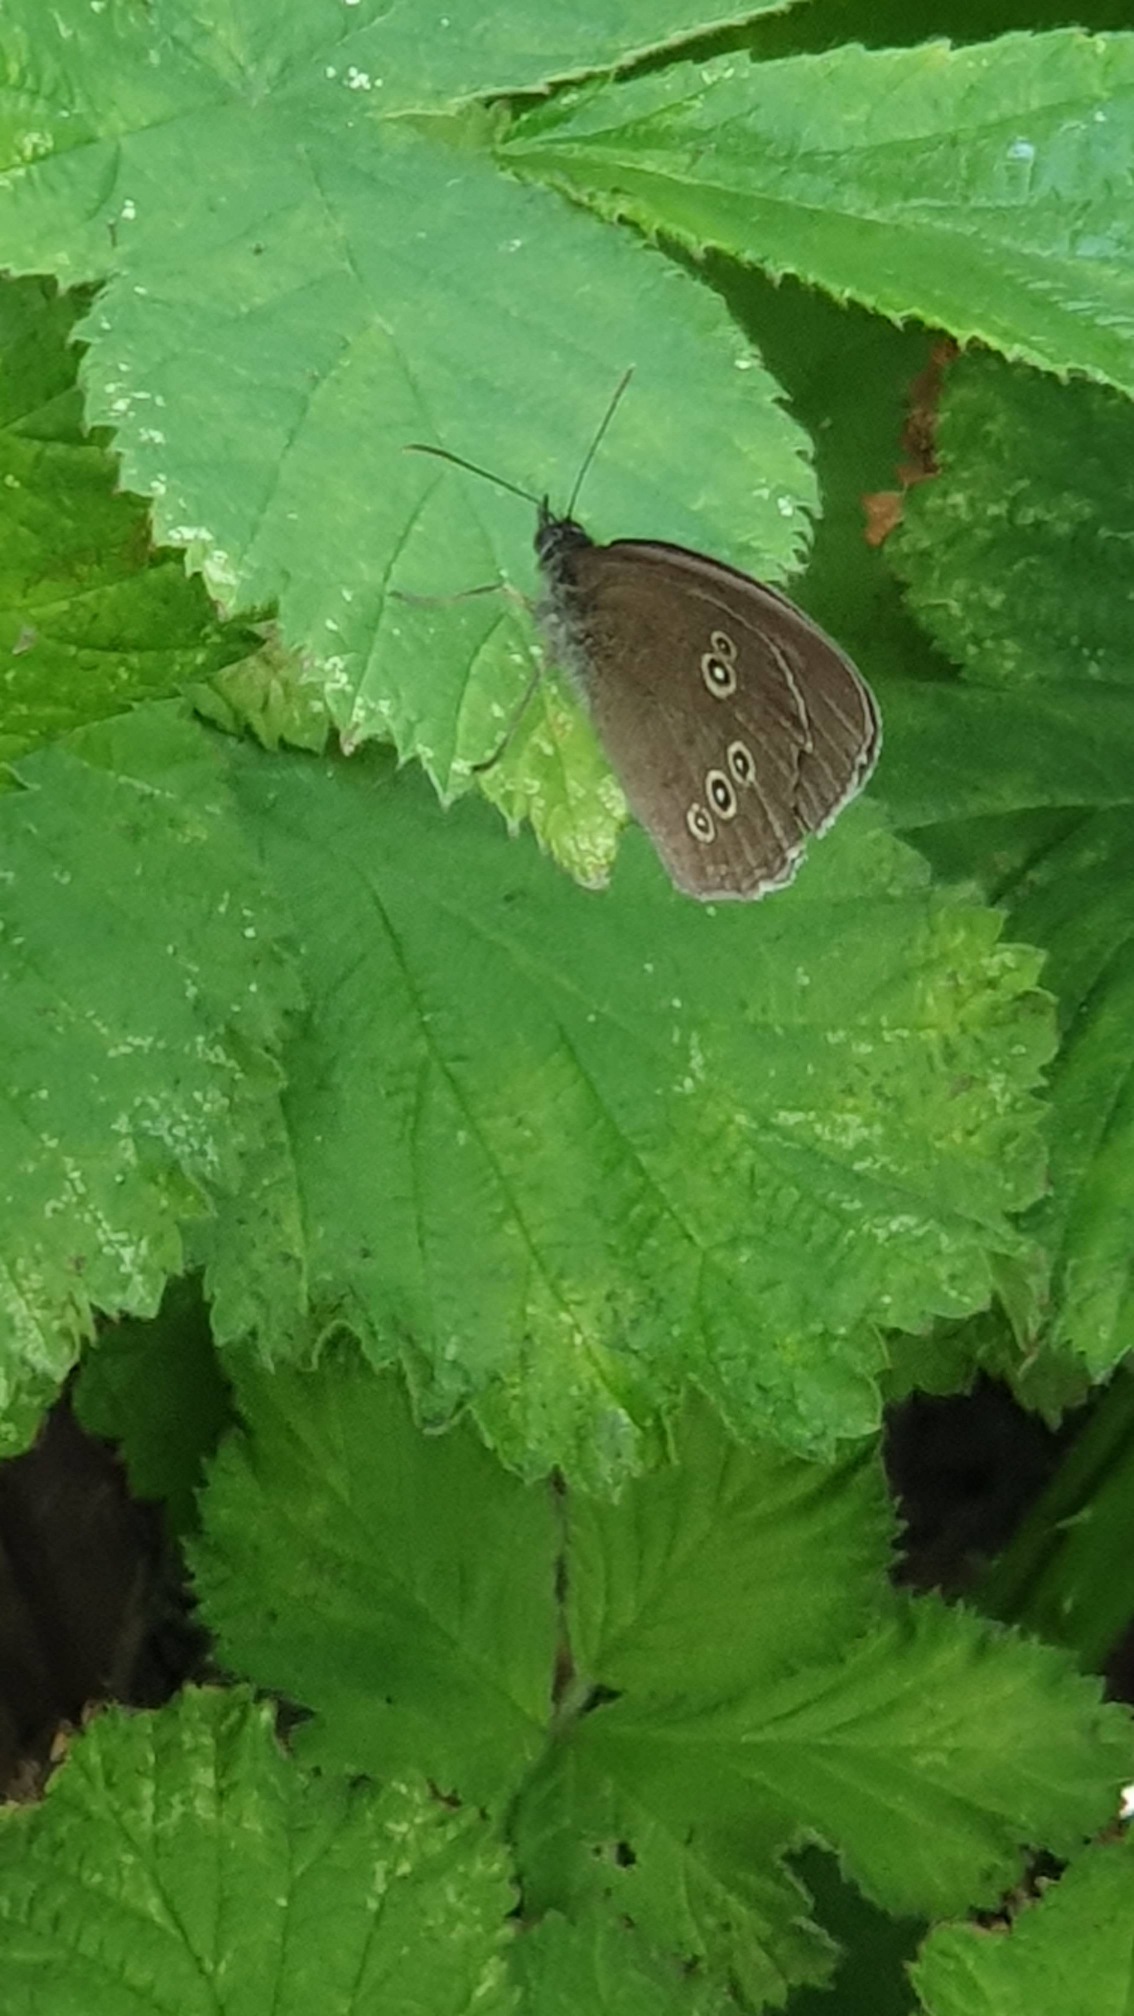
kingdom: Animalia
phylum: Arthropoda
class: Insecta
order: Lepidoptera
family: Nymphalidae
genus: Aphantopus
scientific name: Aphantopus hyperantus
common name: Engrandøje
